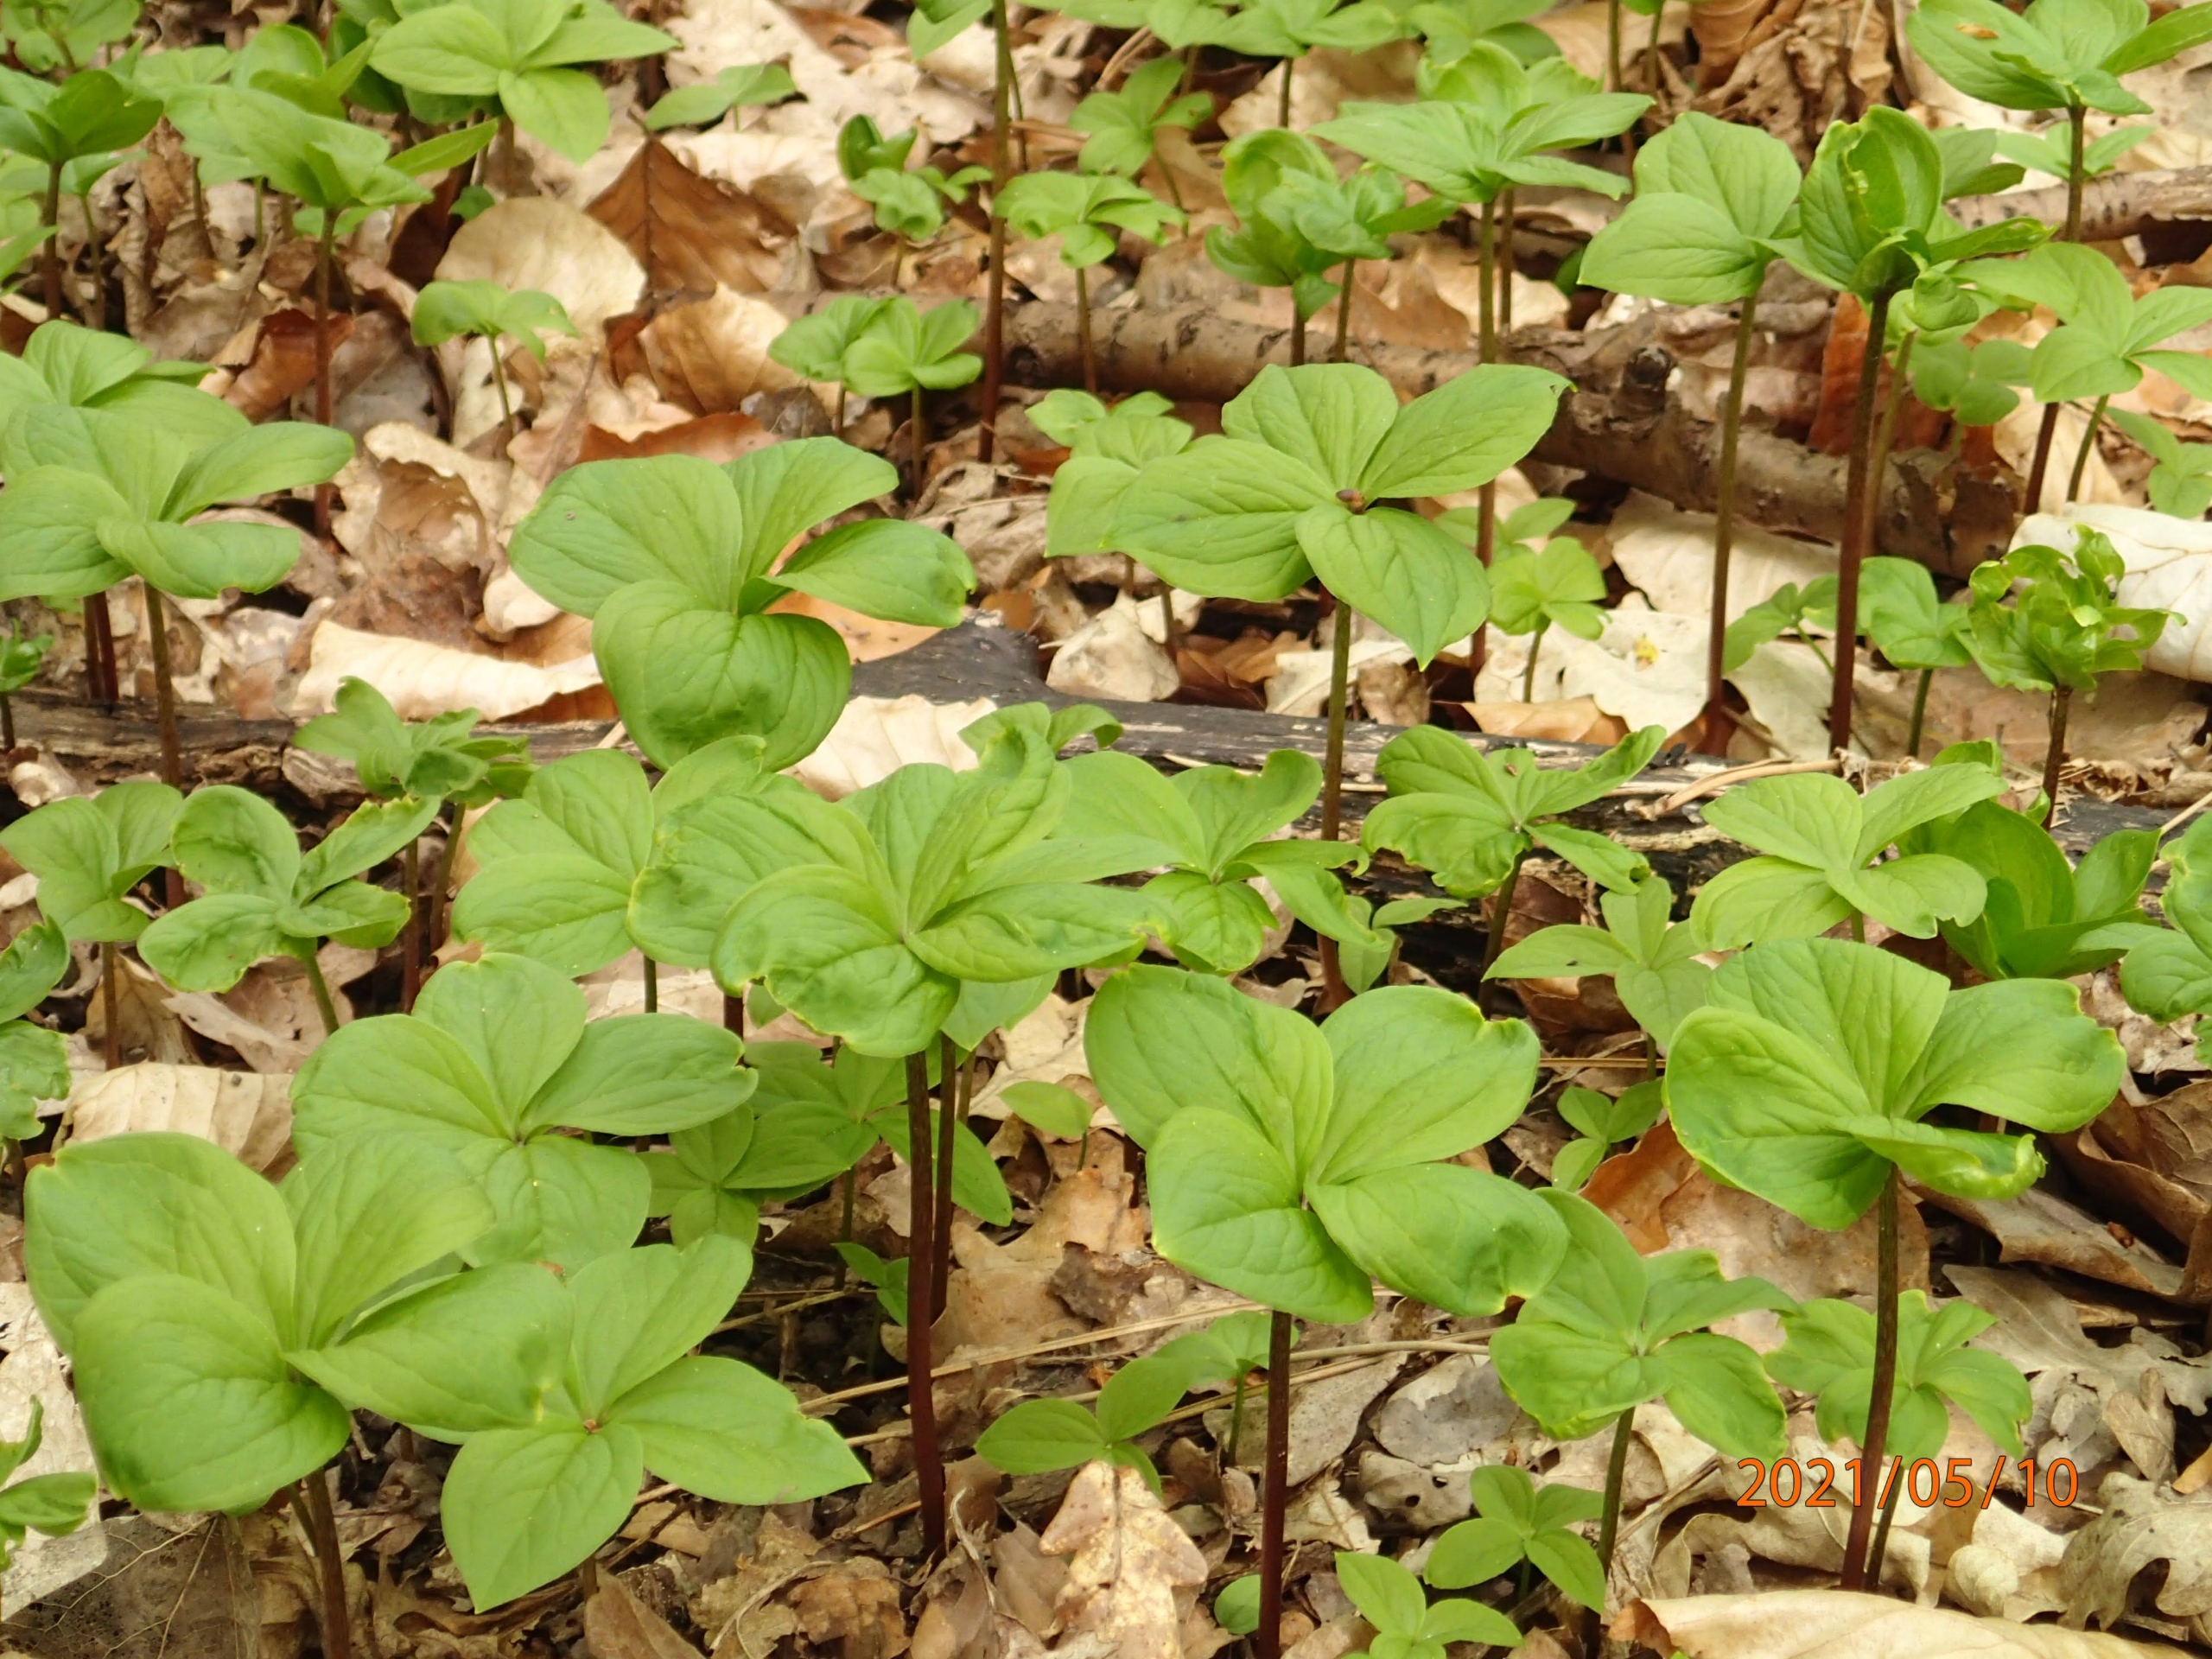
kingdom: Plantae
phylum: Tracheophyta
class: Liliopsida
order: Liliales
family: Melanthiaceae
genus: Paris
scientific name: Paris quadrifolia
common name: Firblad
